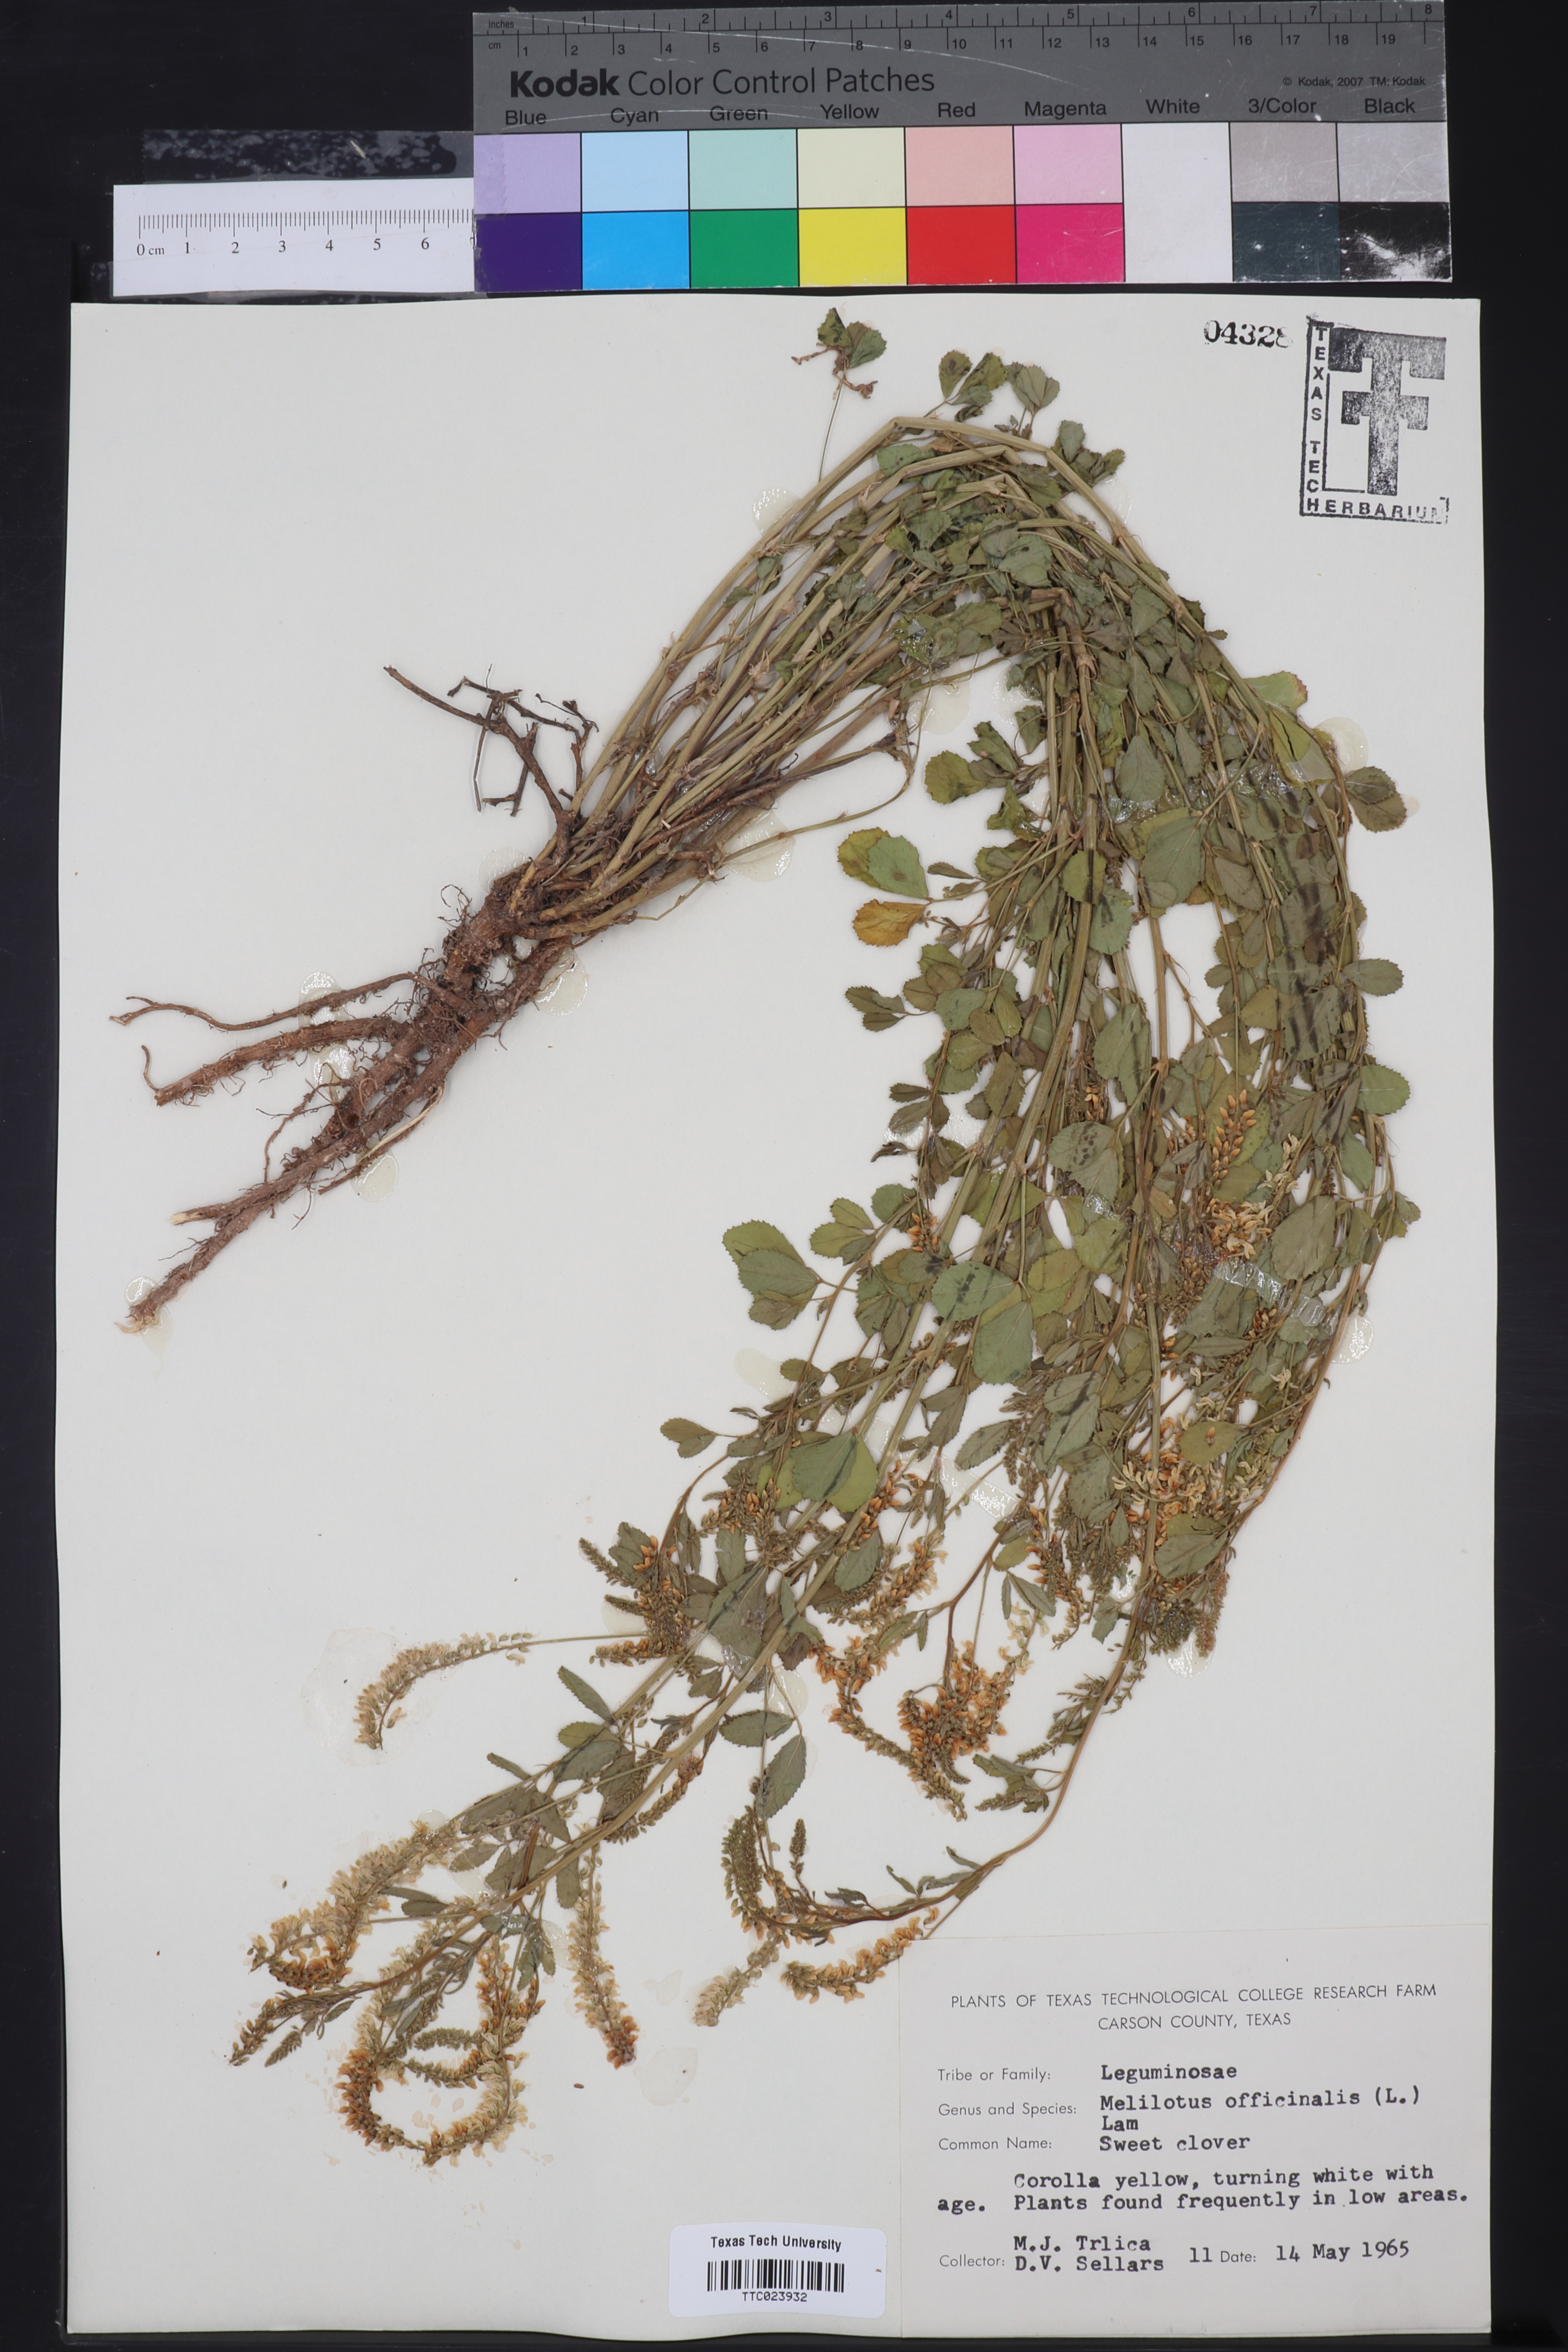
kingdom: Plantae
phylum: Tracheophyta
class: Magnoliopsida
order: Fabales
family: Fabaceae
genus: Melilotus
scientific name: Melilotus officinalis
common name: Sweetclover
